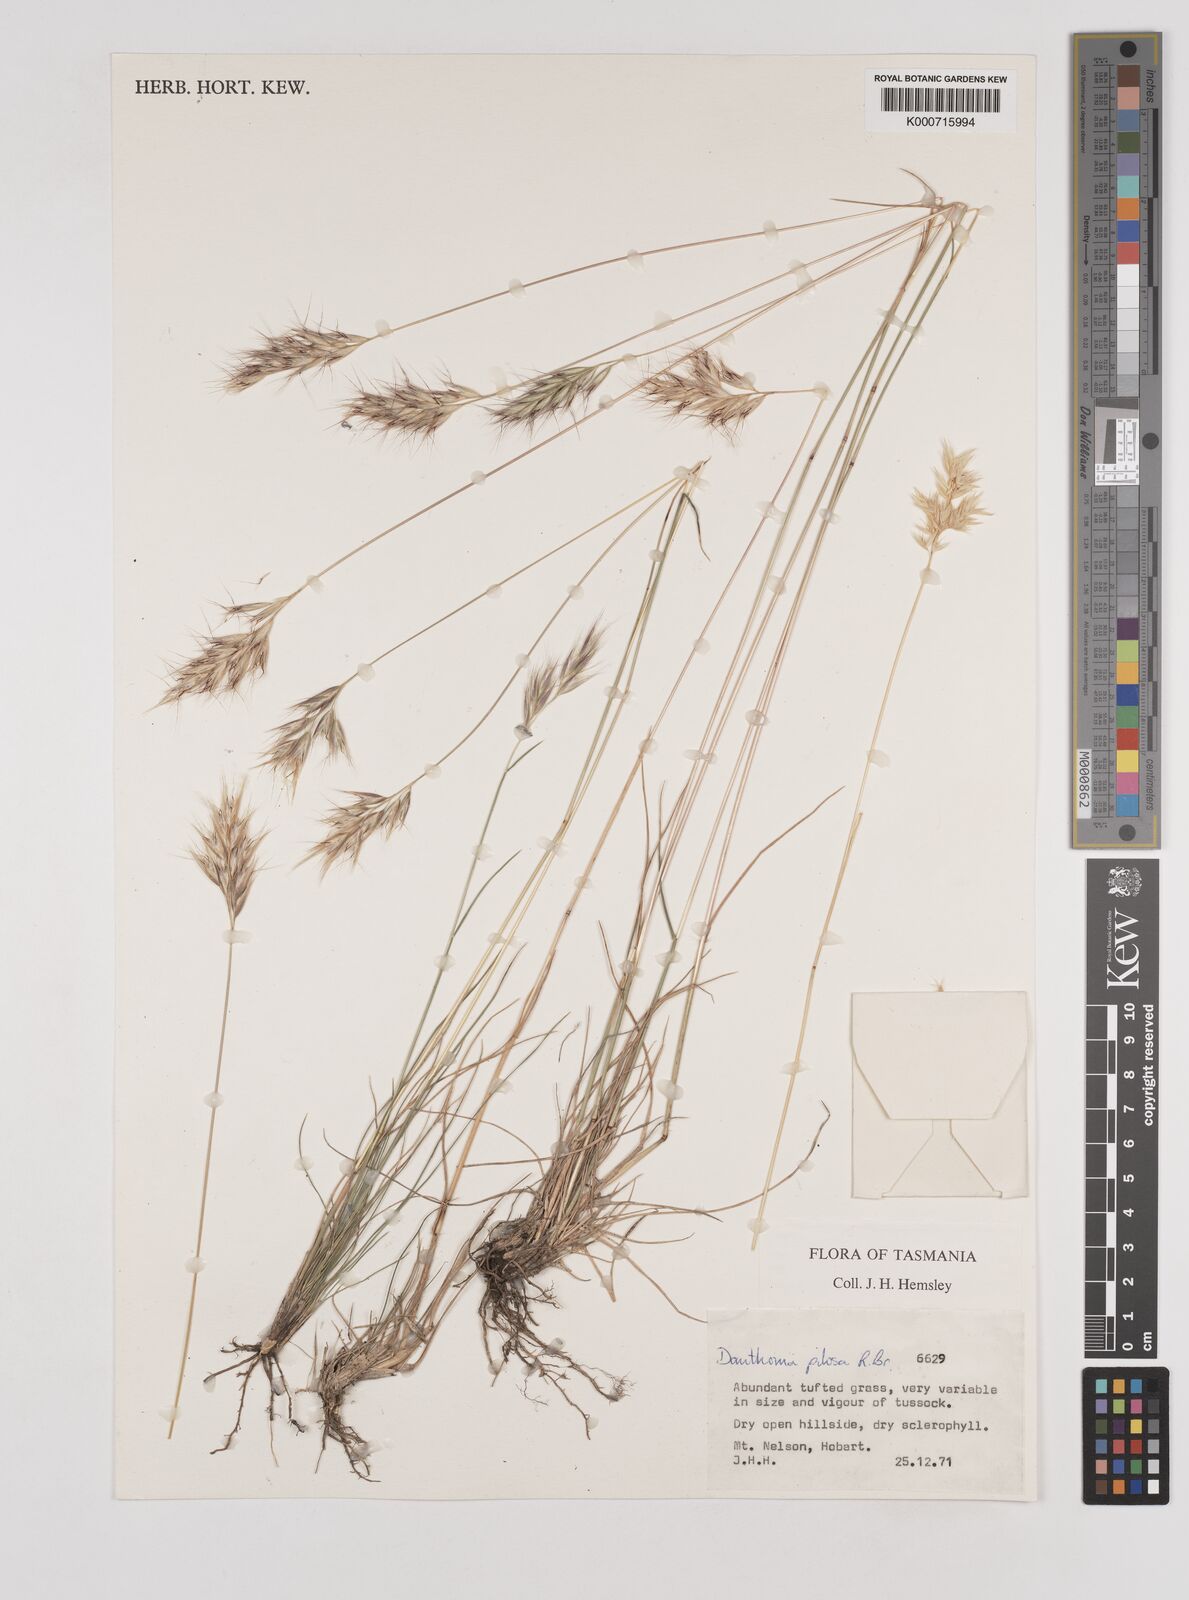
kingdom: Plantae
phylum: Tracheophyta
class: Liliopsida
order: Poales
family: Poaceae
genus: Rytidosperma
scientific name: Rytidosperma pilosum
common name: Hairy wallaby grass
